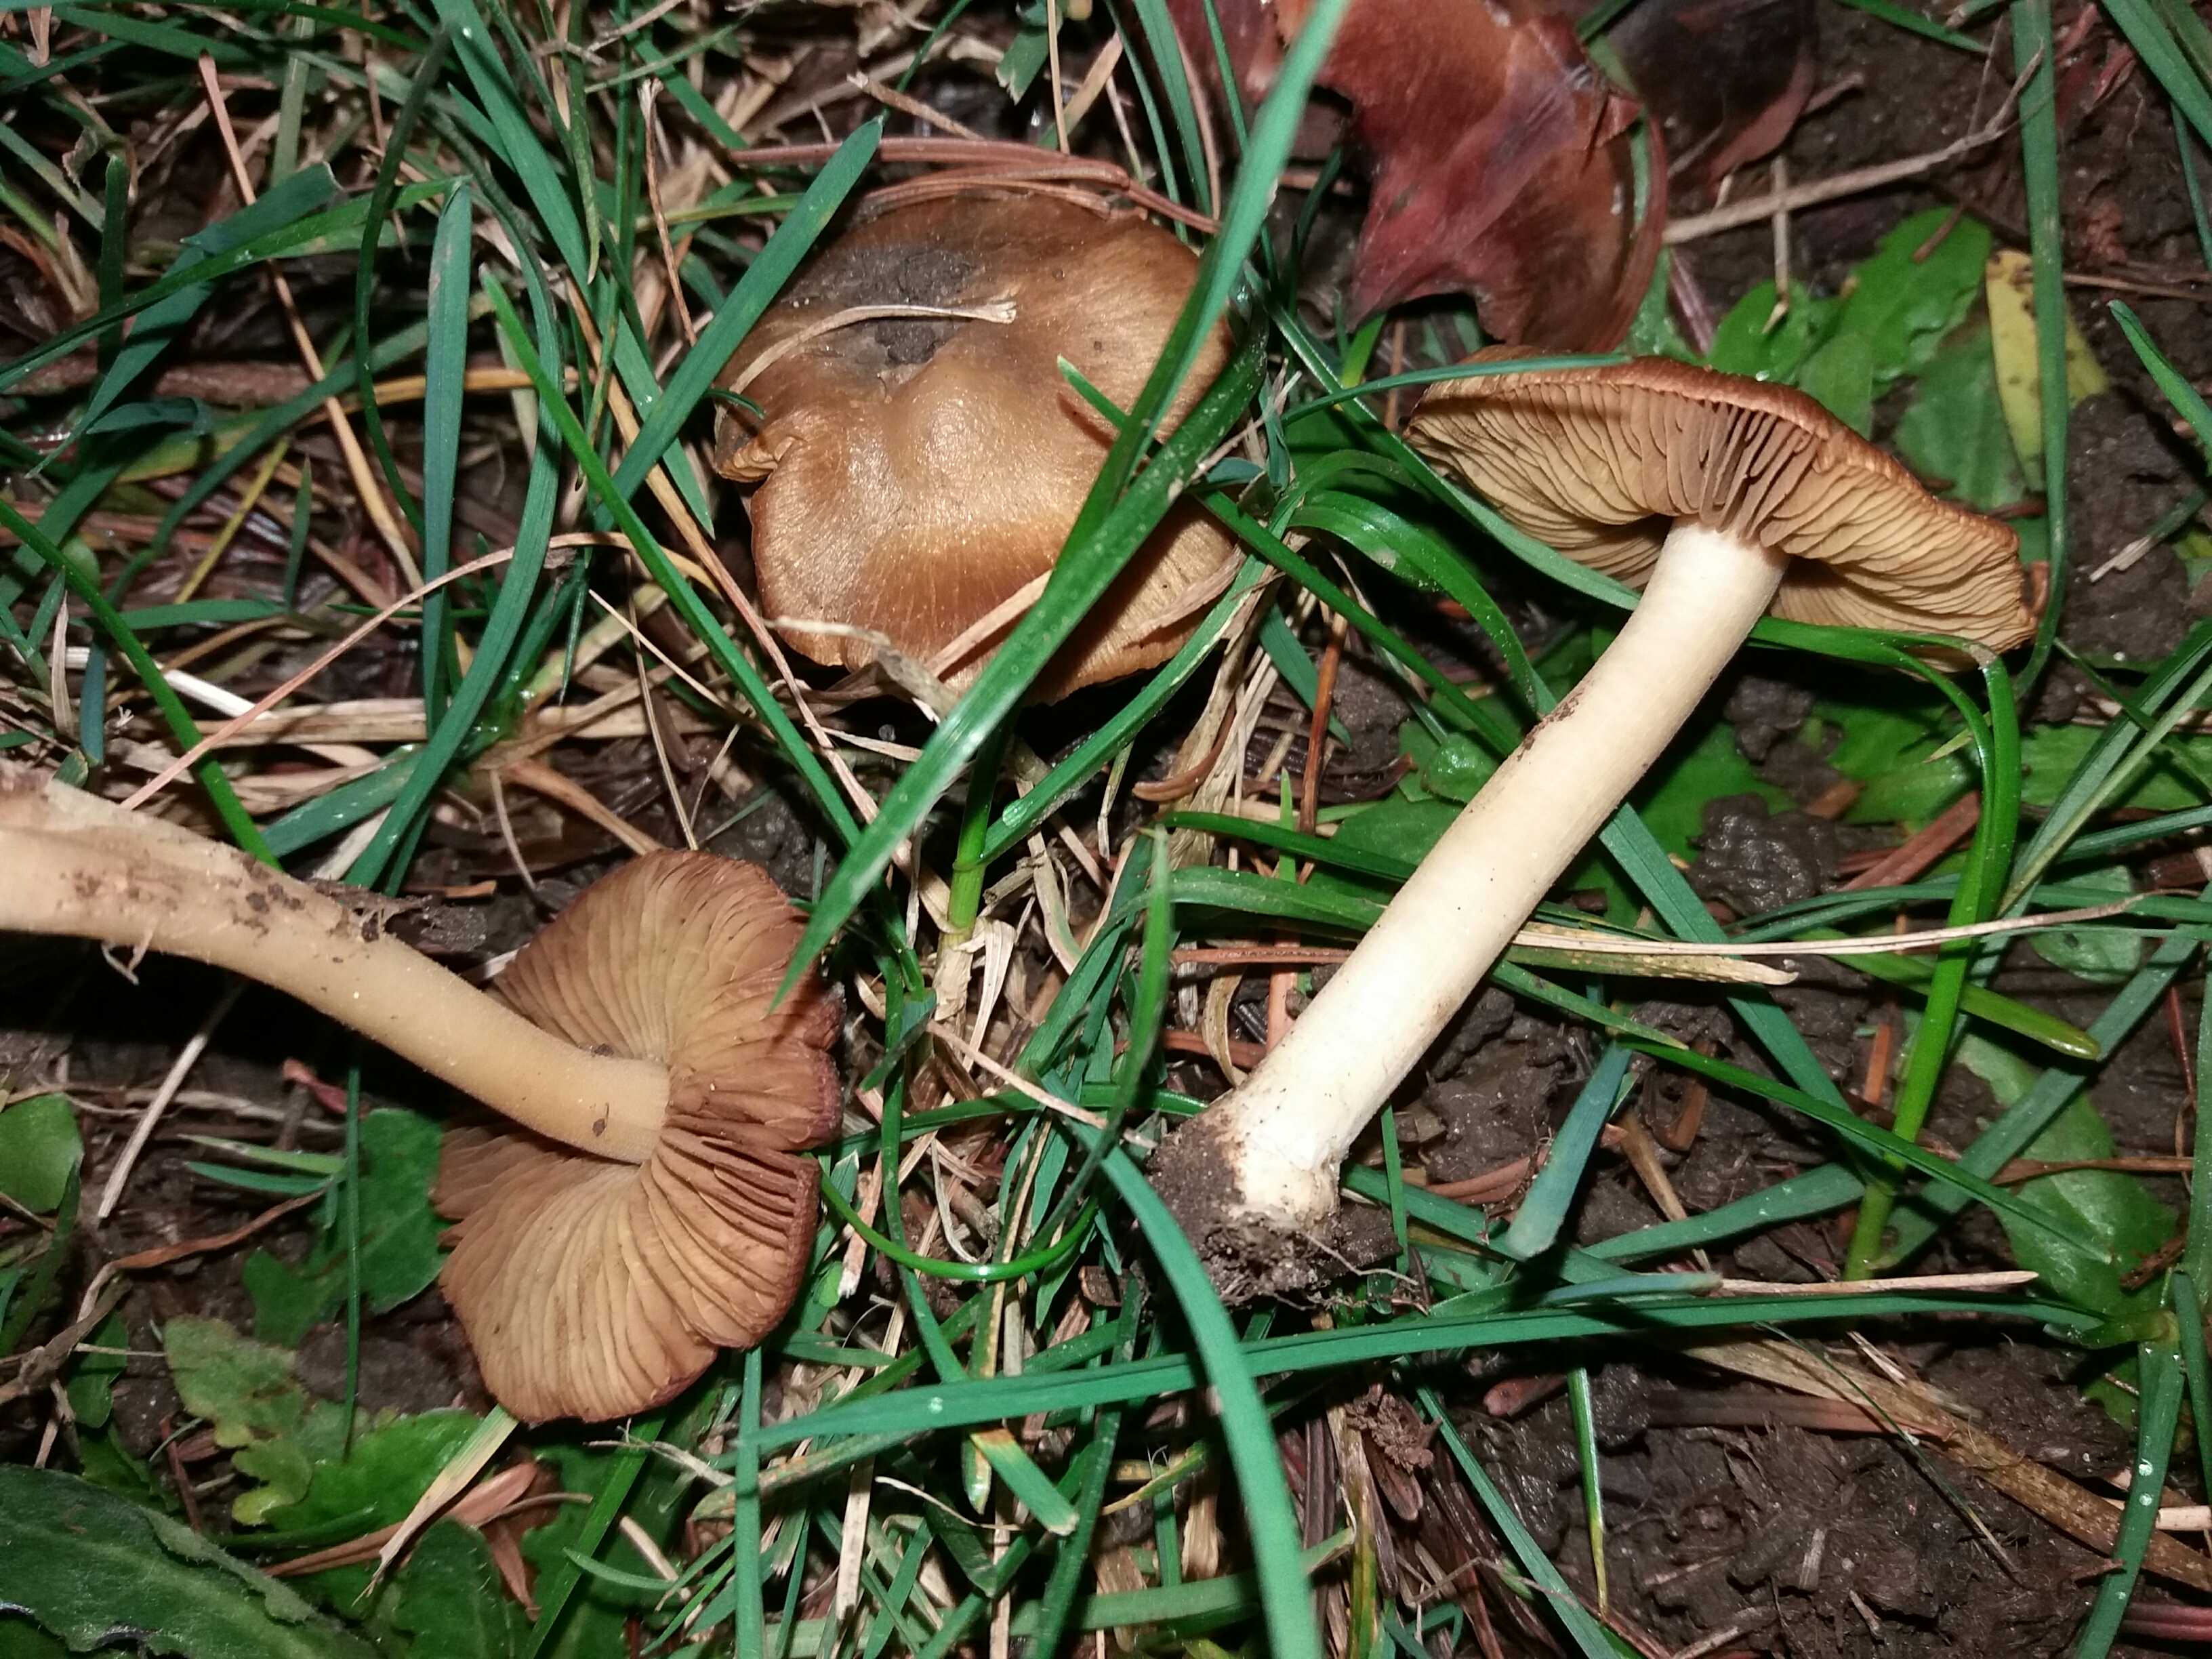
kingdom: Fungi
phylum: Basidiomycota
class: Agaricomycetes
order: Agaricales
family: Inocybaceae
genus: Inocybe
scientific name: Inocybe
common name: trævlhat
